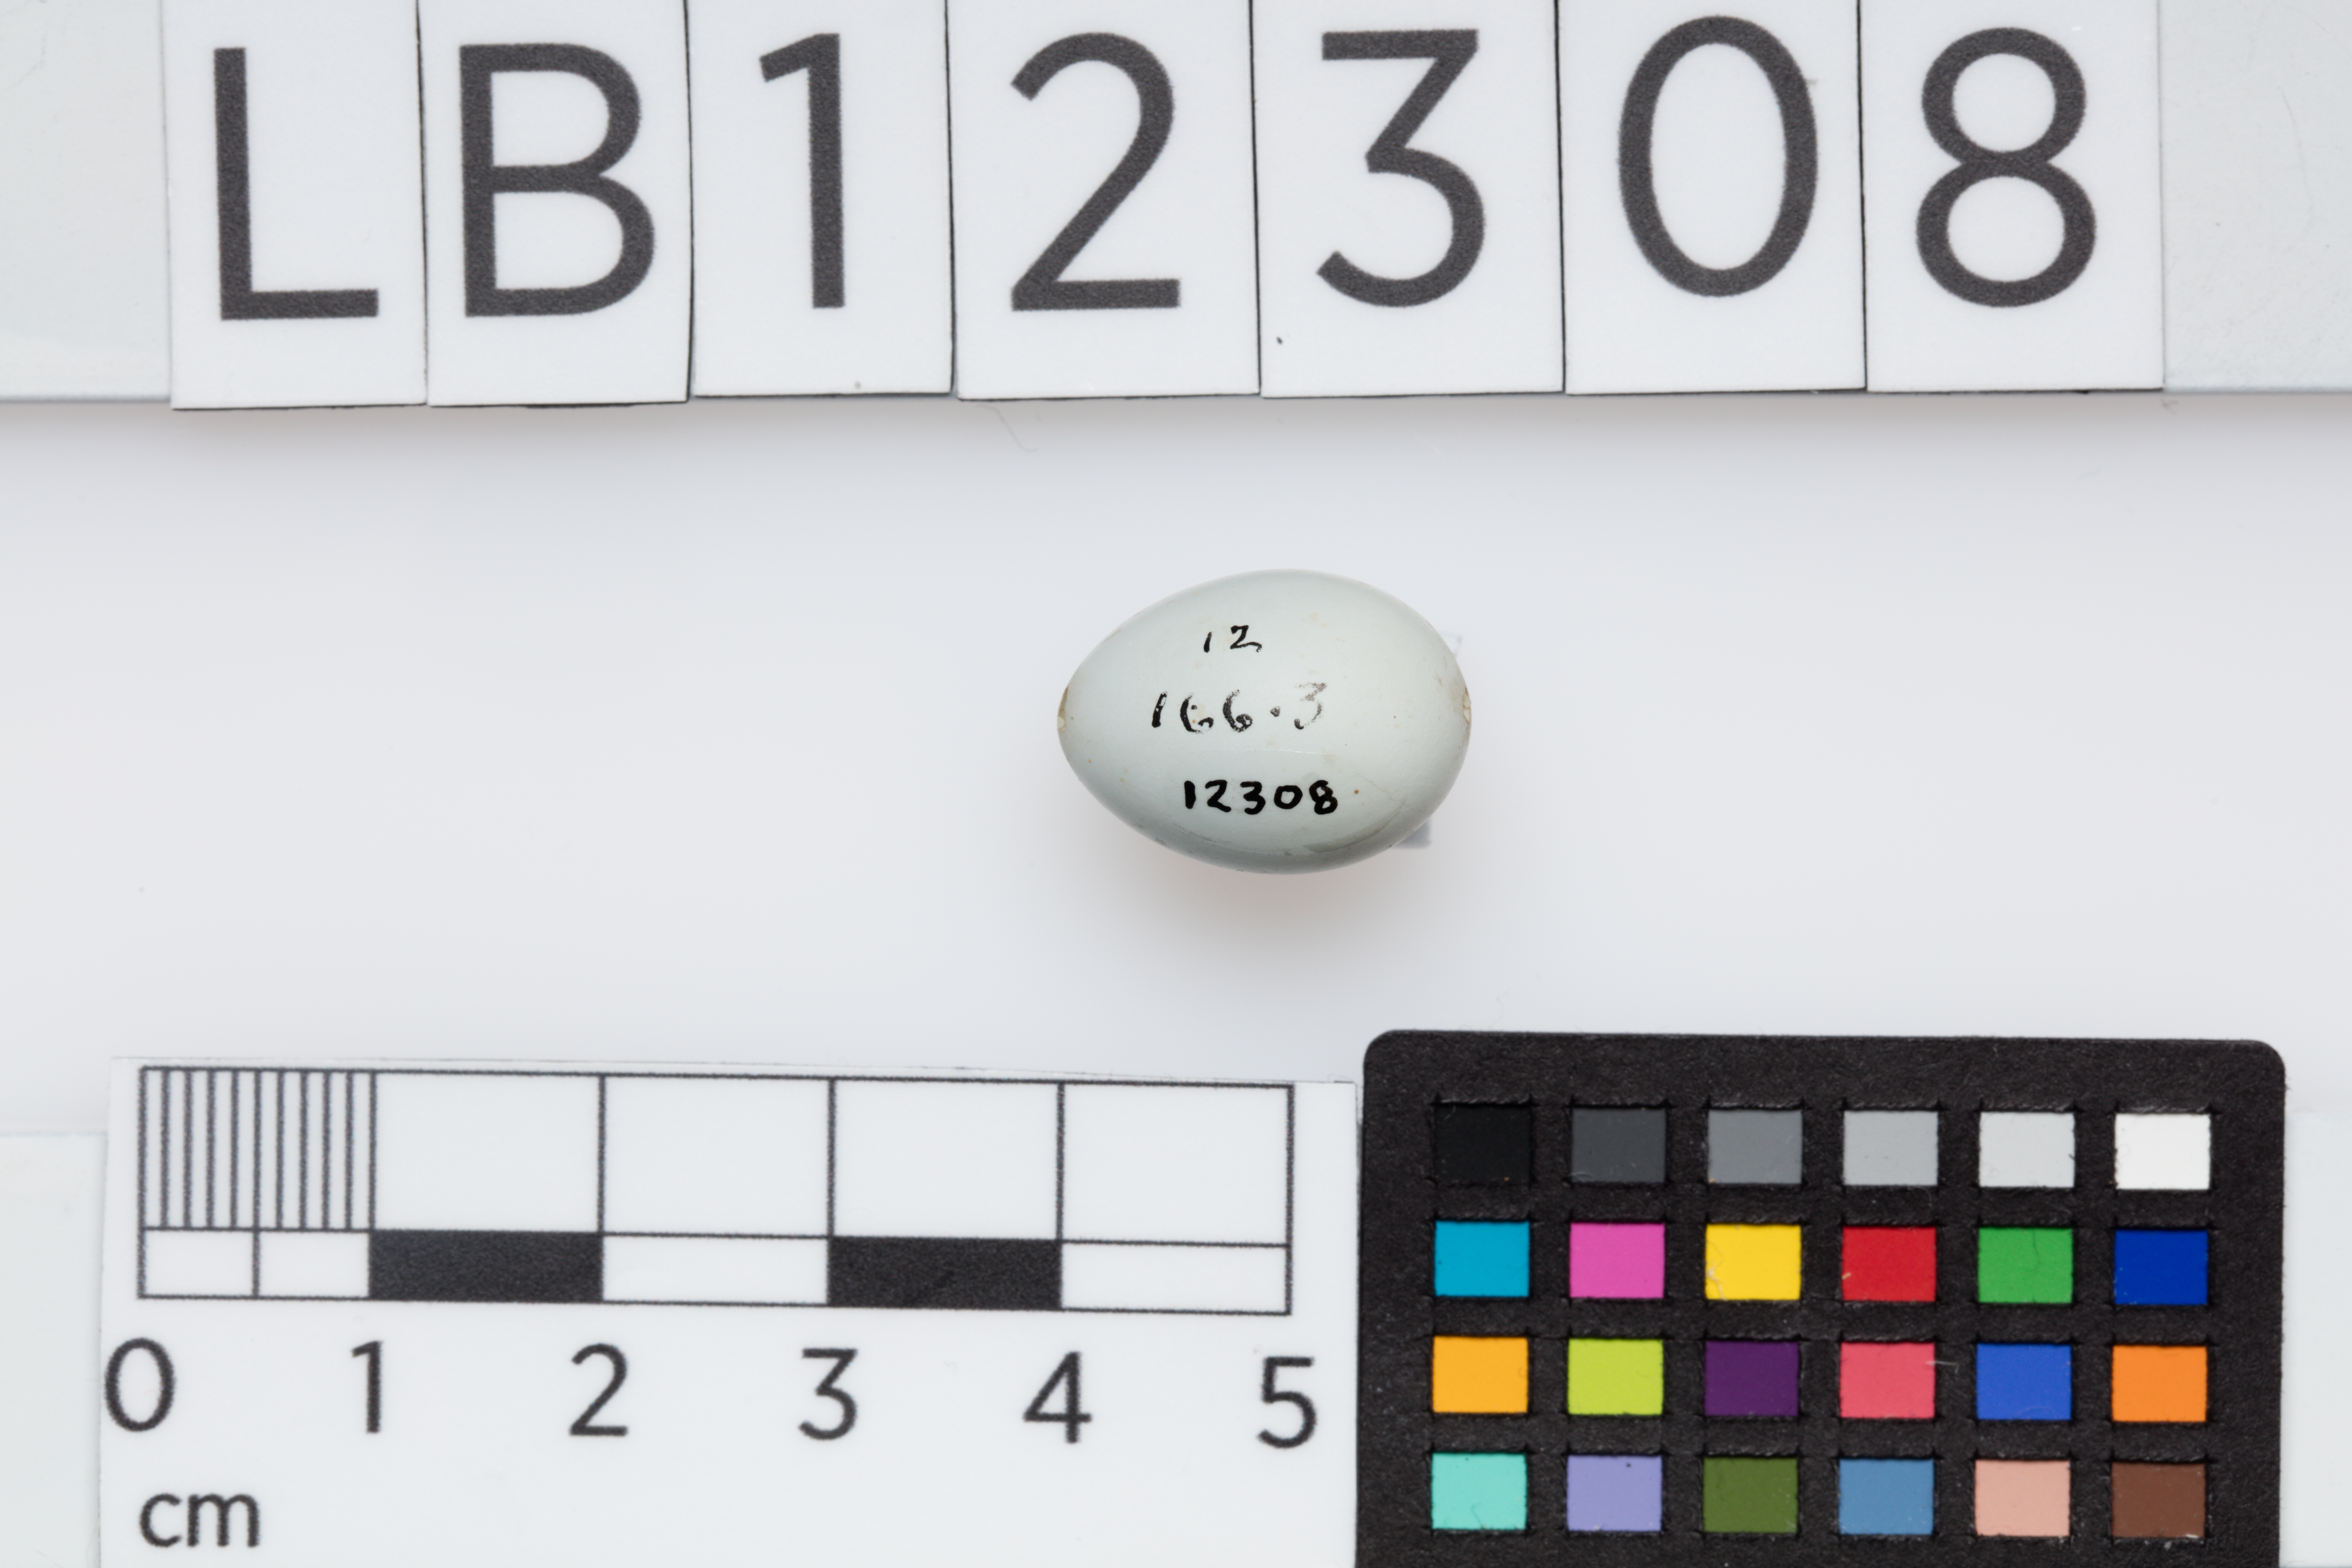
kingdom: Animalia
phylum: Chordata
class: Aves
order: Passeriformes
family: Muscicapidae
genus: Phoenicurus
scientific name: Phoenicurus phoenicurus
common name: Common redstart
